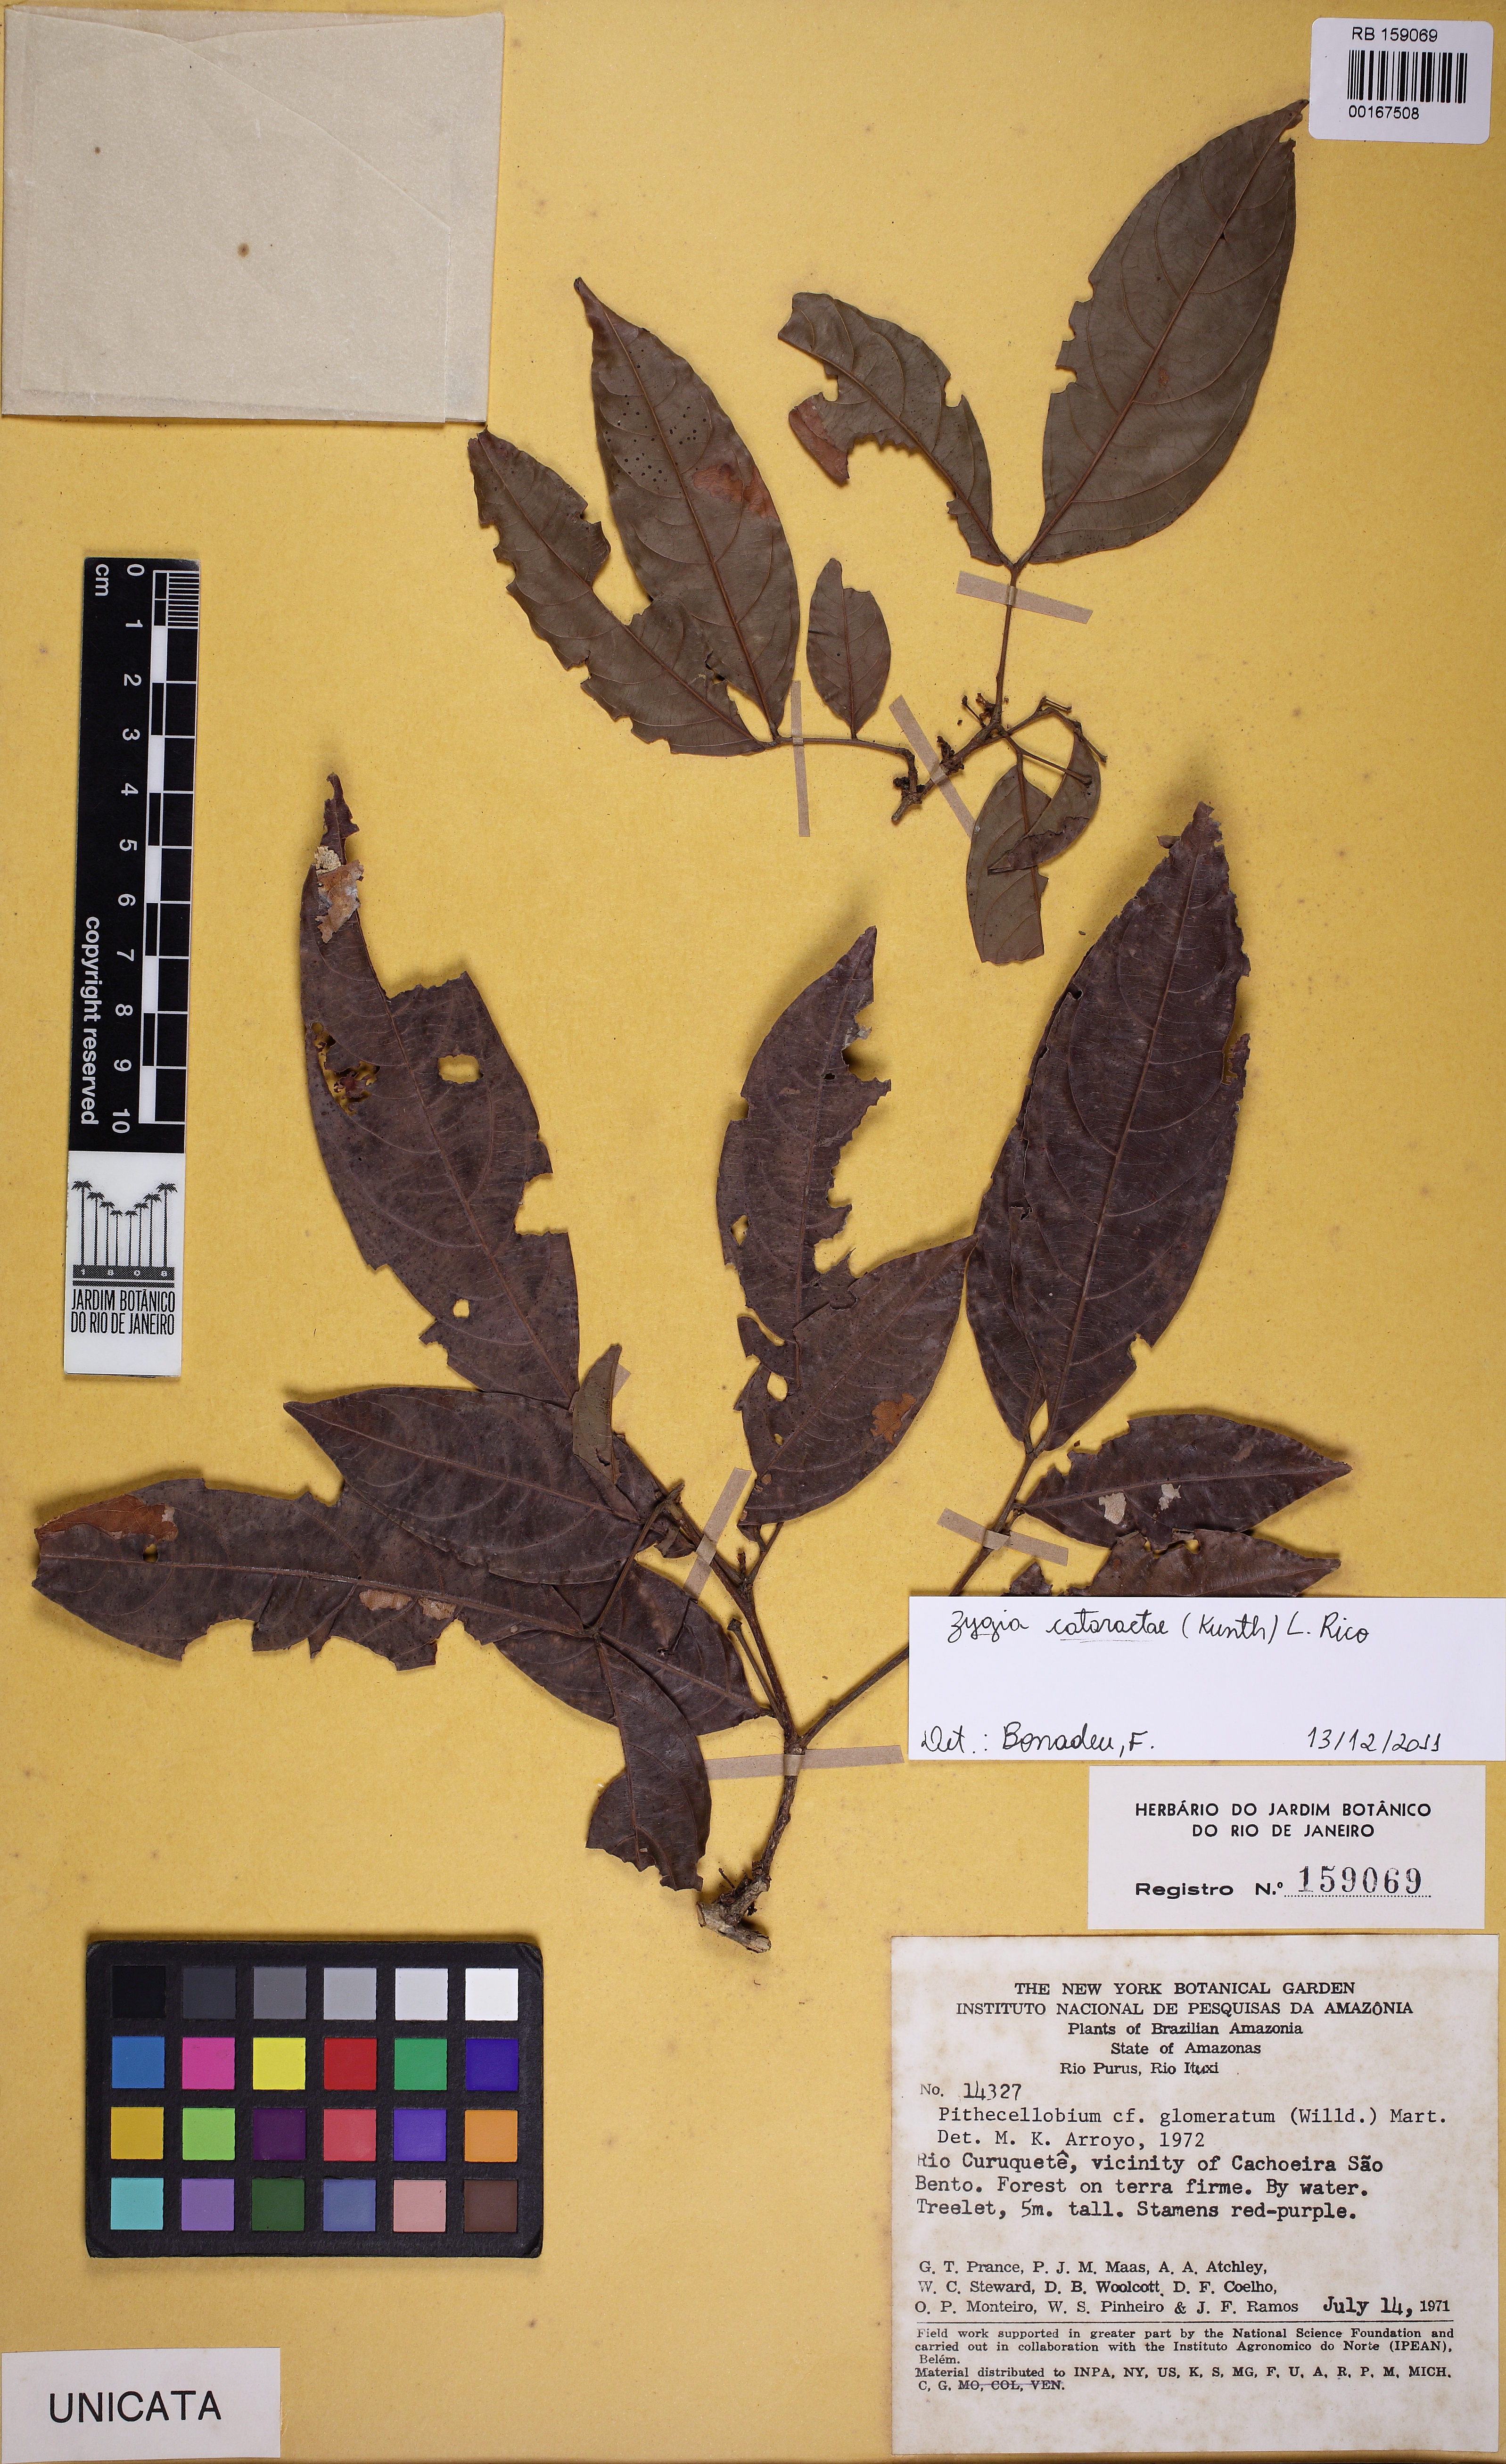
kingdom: Plantae
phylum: Tracheophyta
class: Magnoliopsida
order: Fabales
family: Fabaceae
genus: Zygia
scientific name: Zygia cataractae
